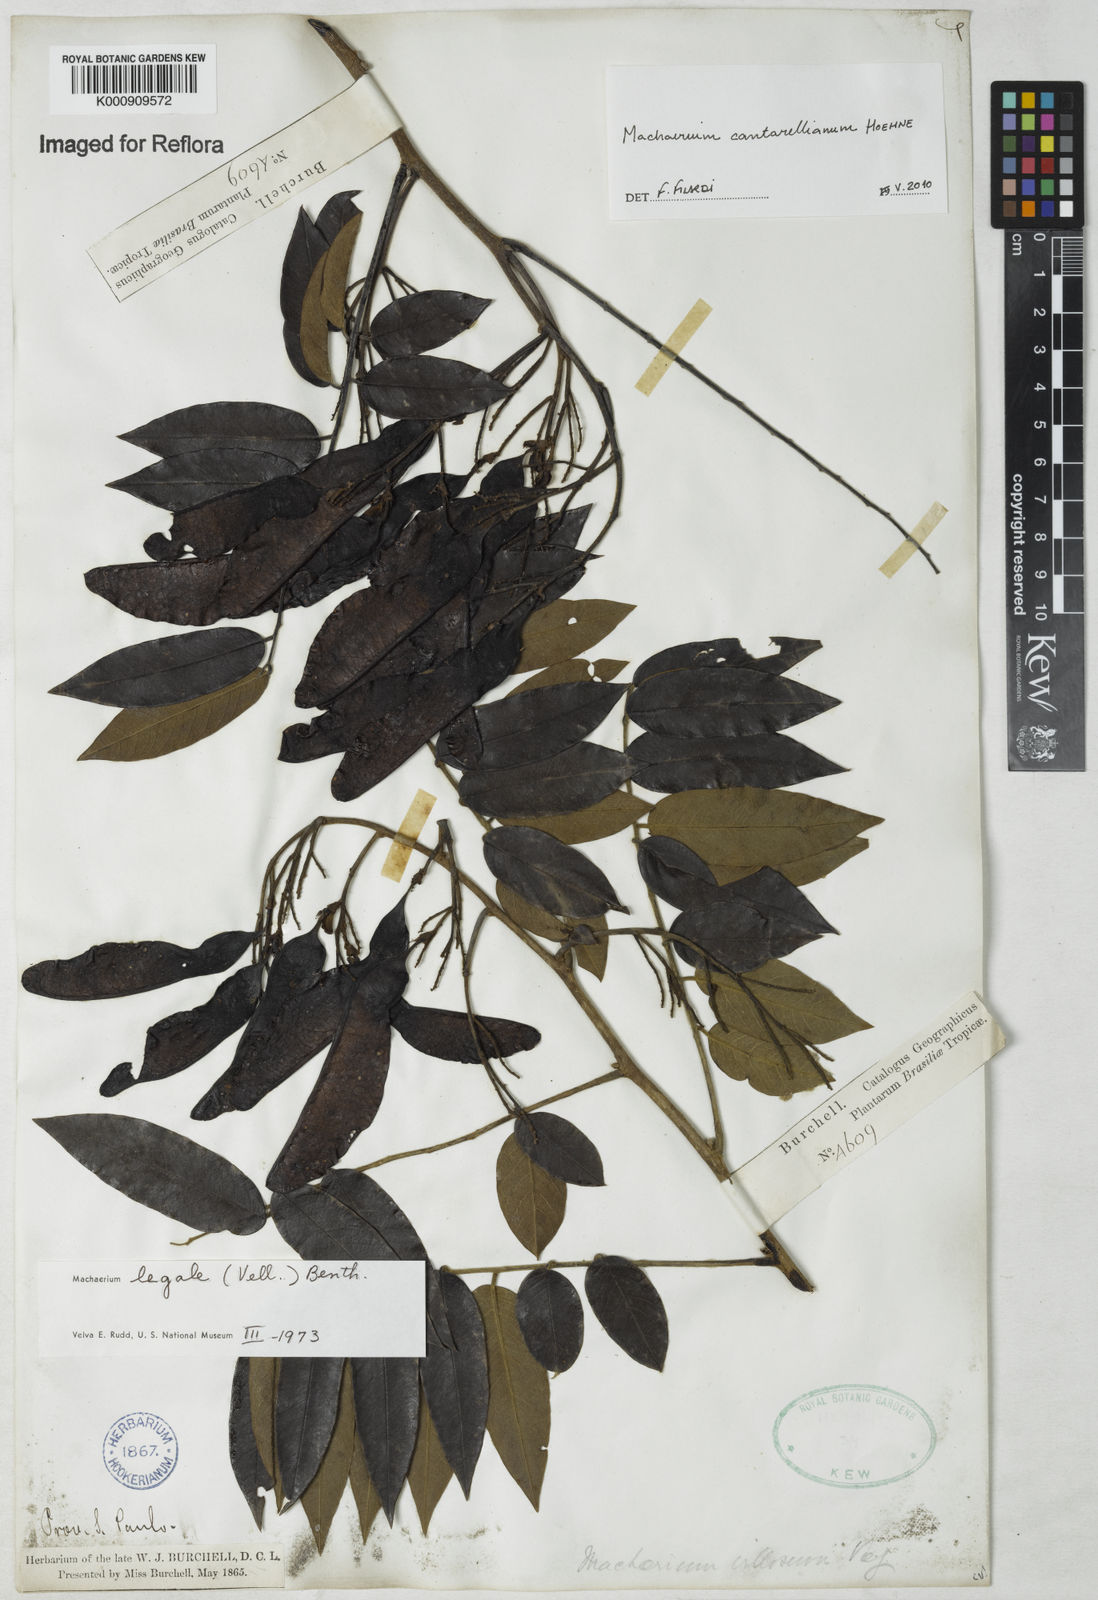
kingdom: Plantae
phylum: Tracheophyta
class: Magnoliopsida
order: Fabales
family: Fabaceae
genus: Machaerium
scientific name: Machaerium cantarellianum
